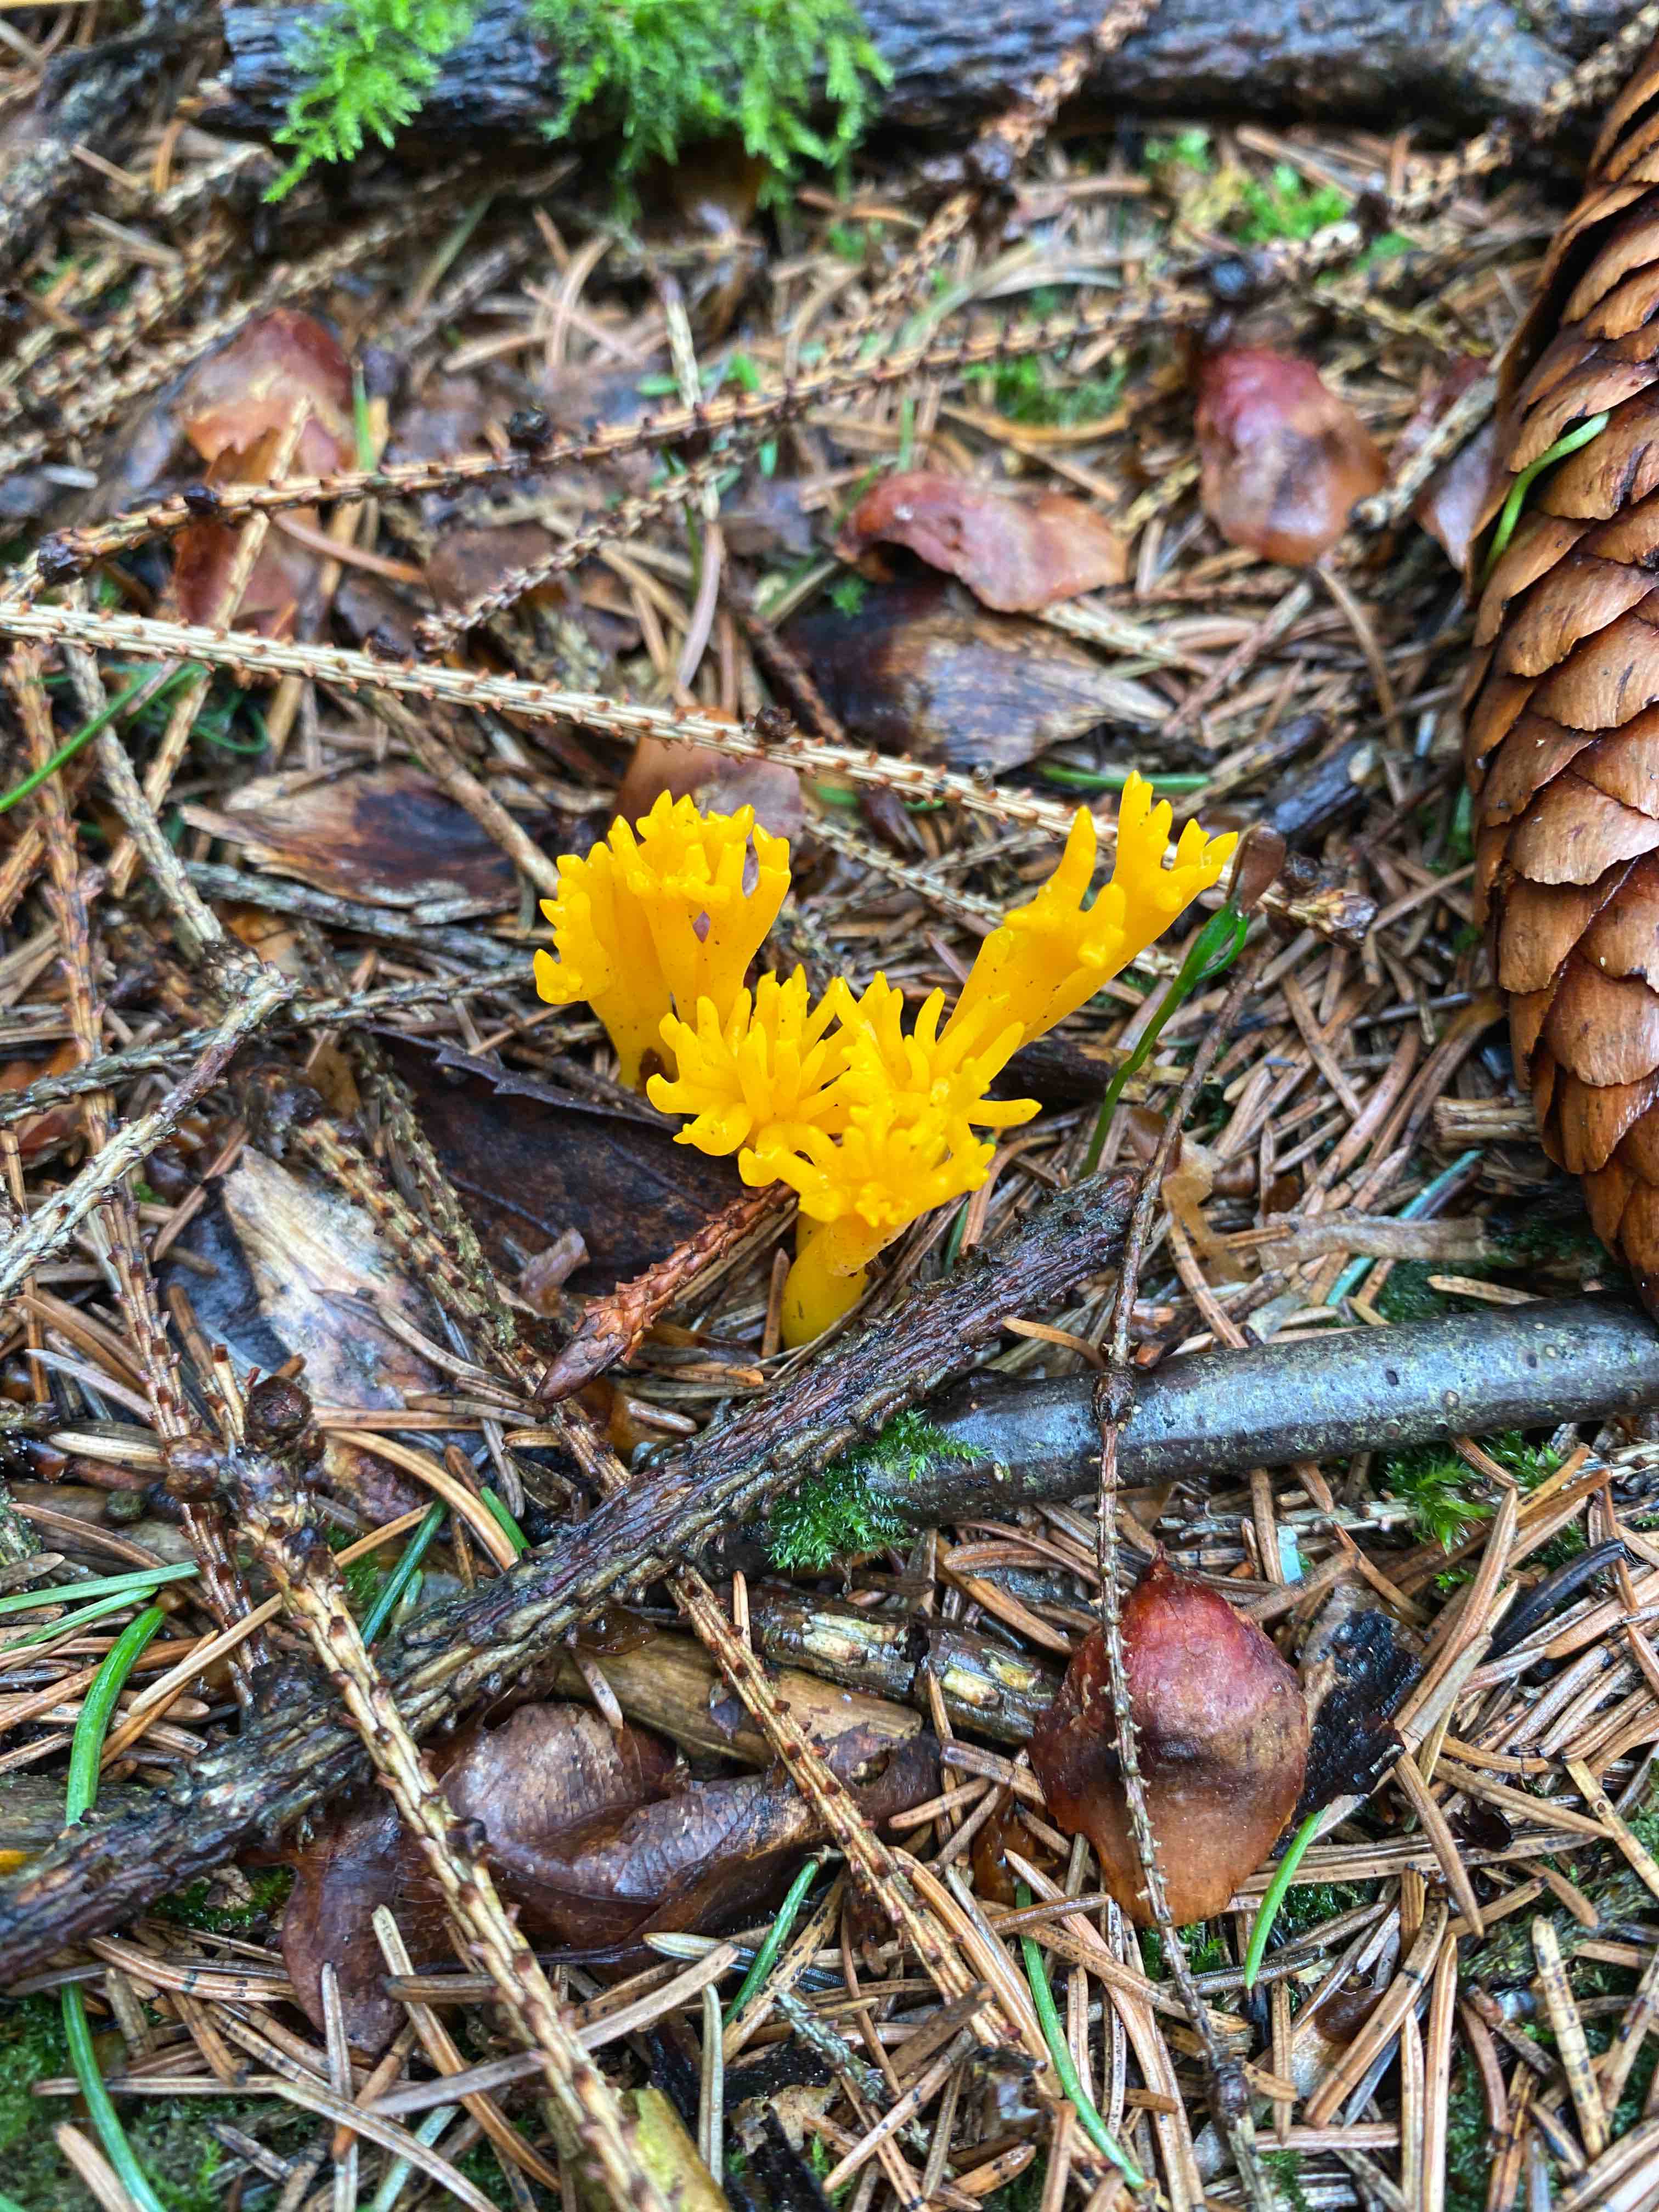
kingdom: Fungi
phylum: Basidiomycota
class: Dacrymycetes
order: Dacrymycetales
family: Dacrymycetaceae
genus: Calocera
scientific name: Calocera viscosa
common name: almindelig guldgaffel
